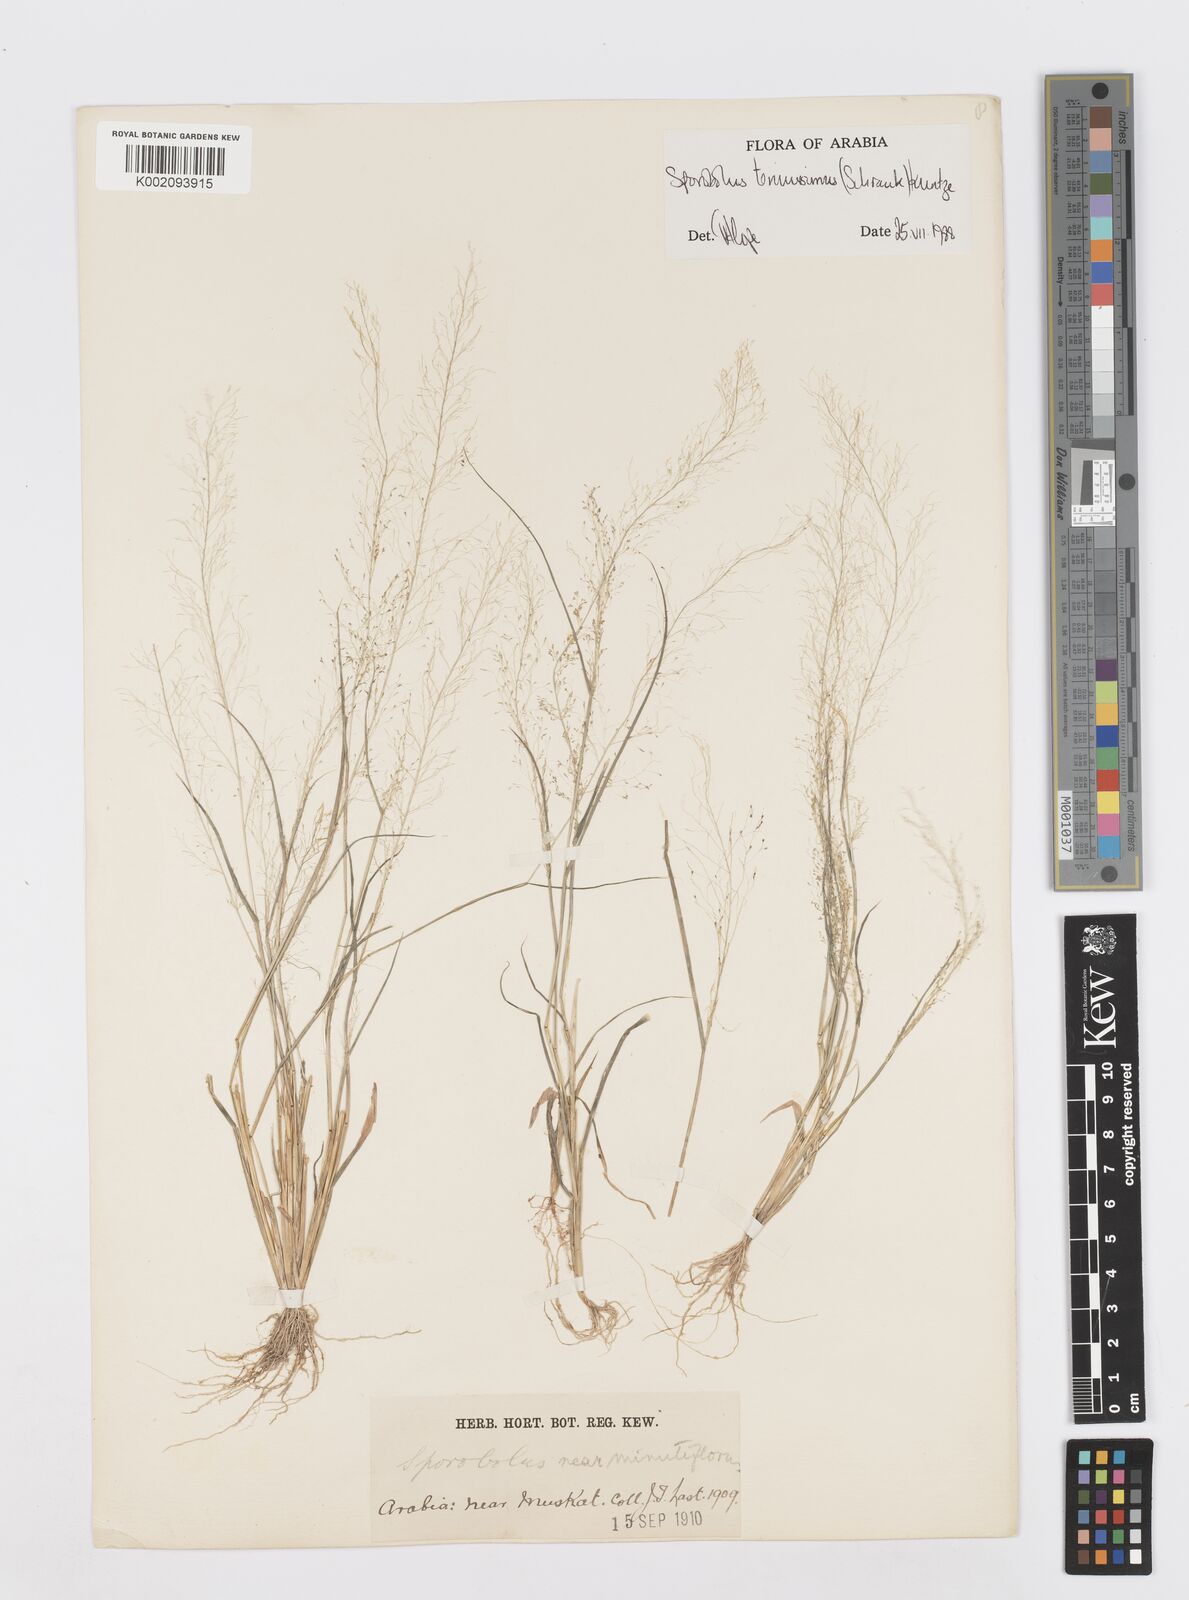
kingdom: Plantae
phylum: Tracheophyta
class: Liliopsida
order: Poales
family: Poaceae
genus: Sporobolus
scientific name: Sporobolus tenuissimus
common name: Tropical dropseed
